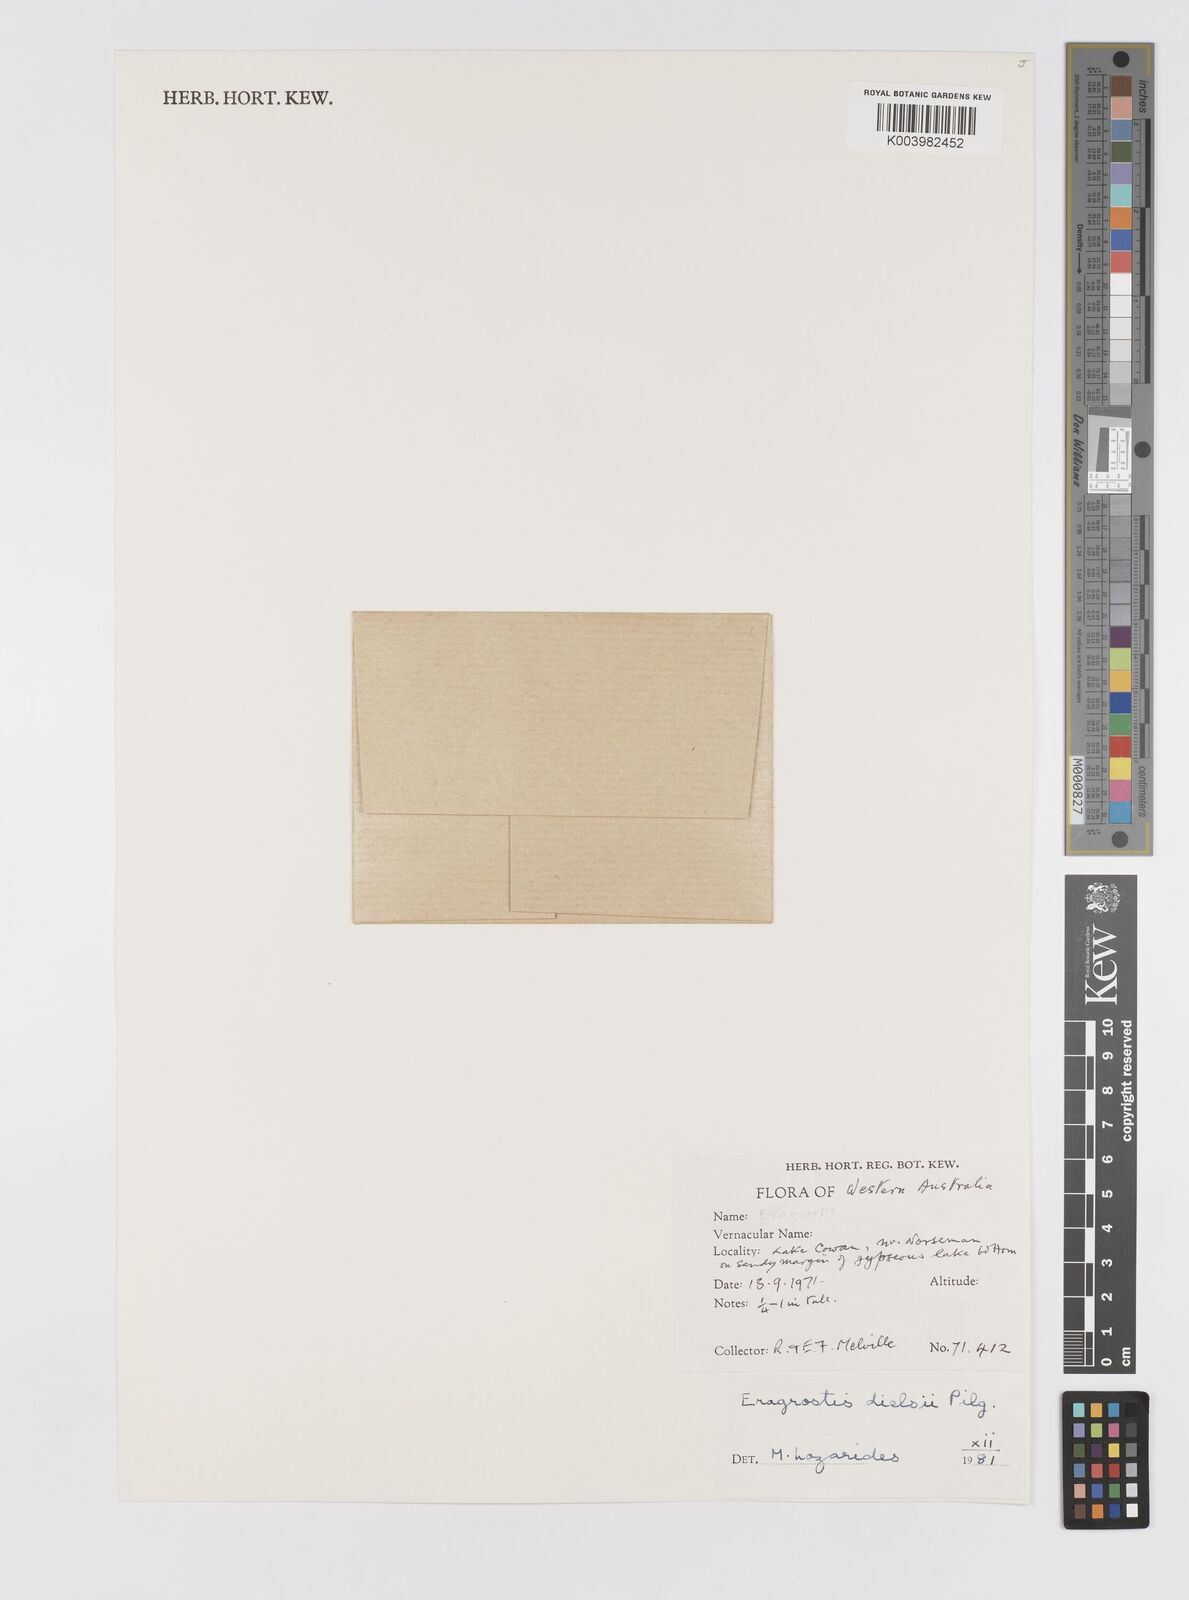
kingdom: Plantae
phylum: Tracheophyta
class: Liliopsida
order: Poales
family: Poaceae
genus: Eragrostis
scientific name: Eragrostis dielsii
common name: Lovegrass
